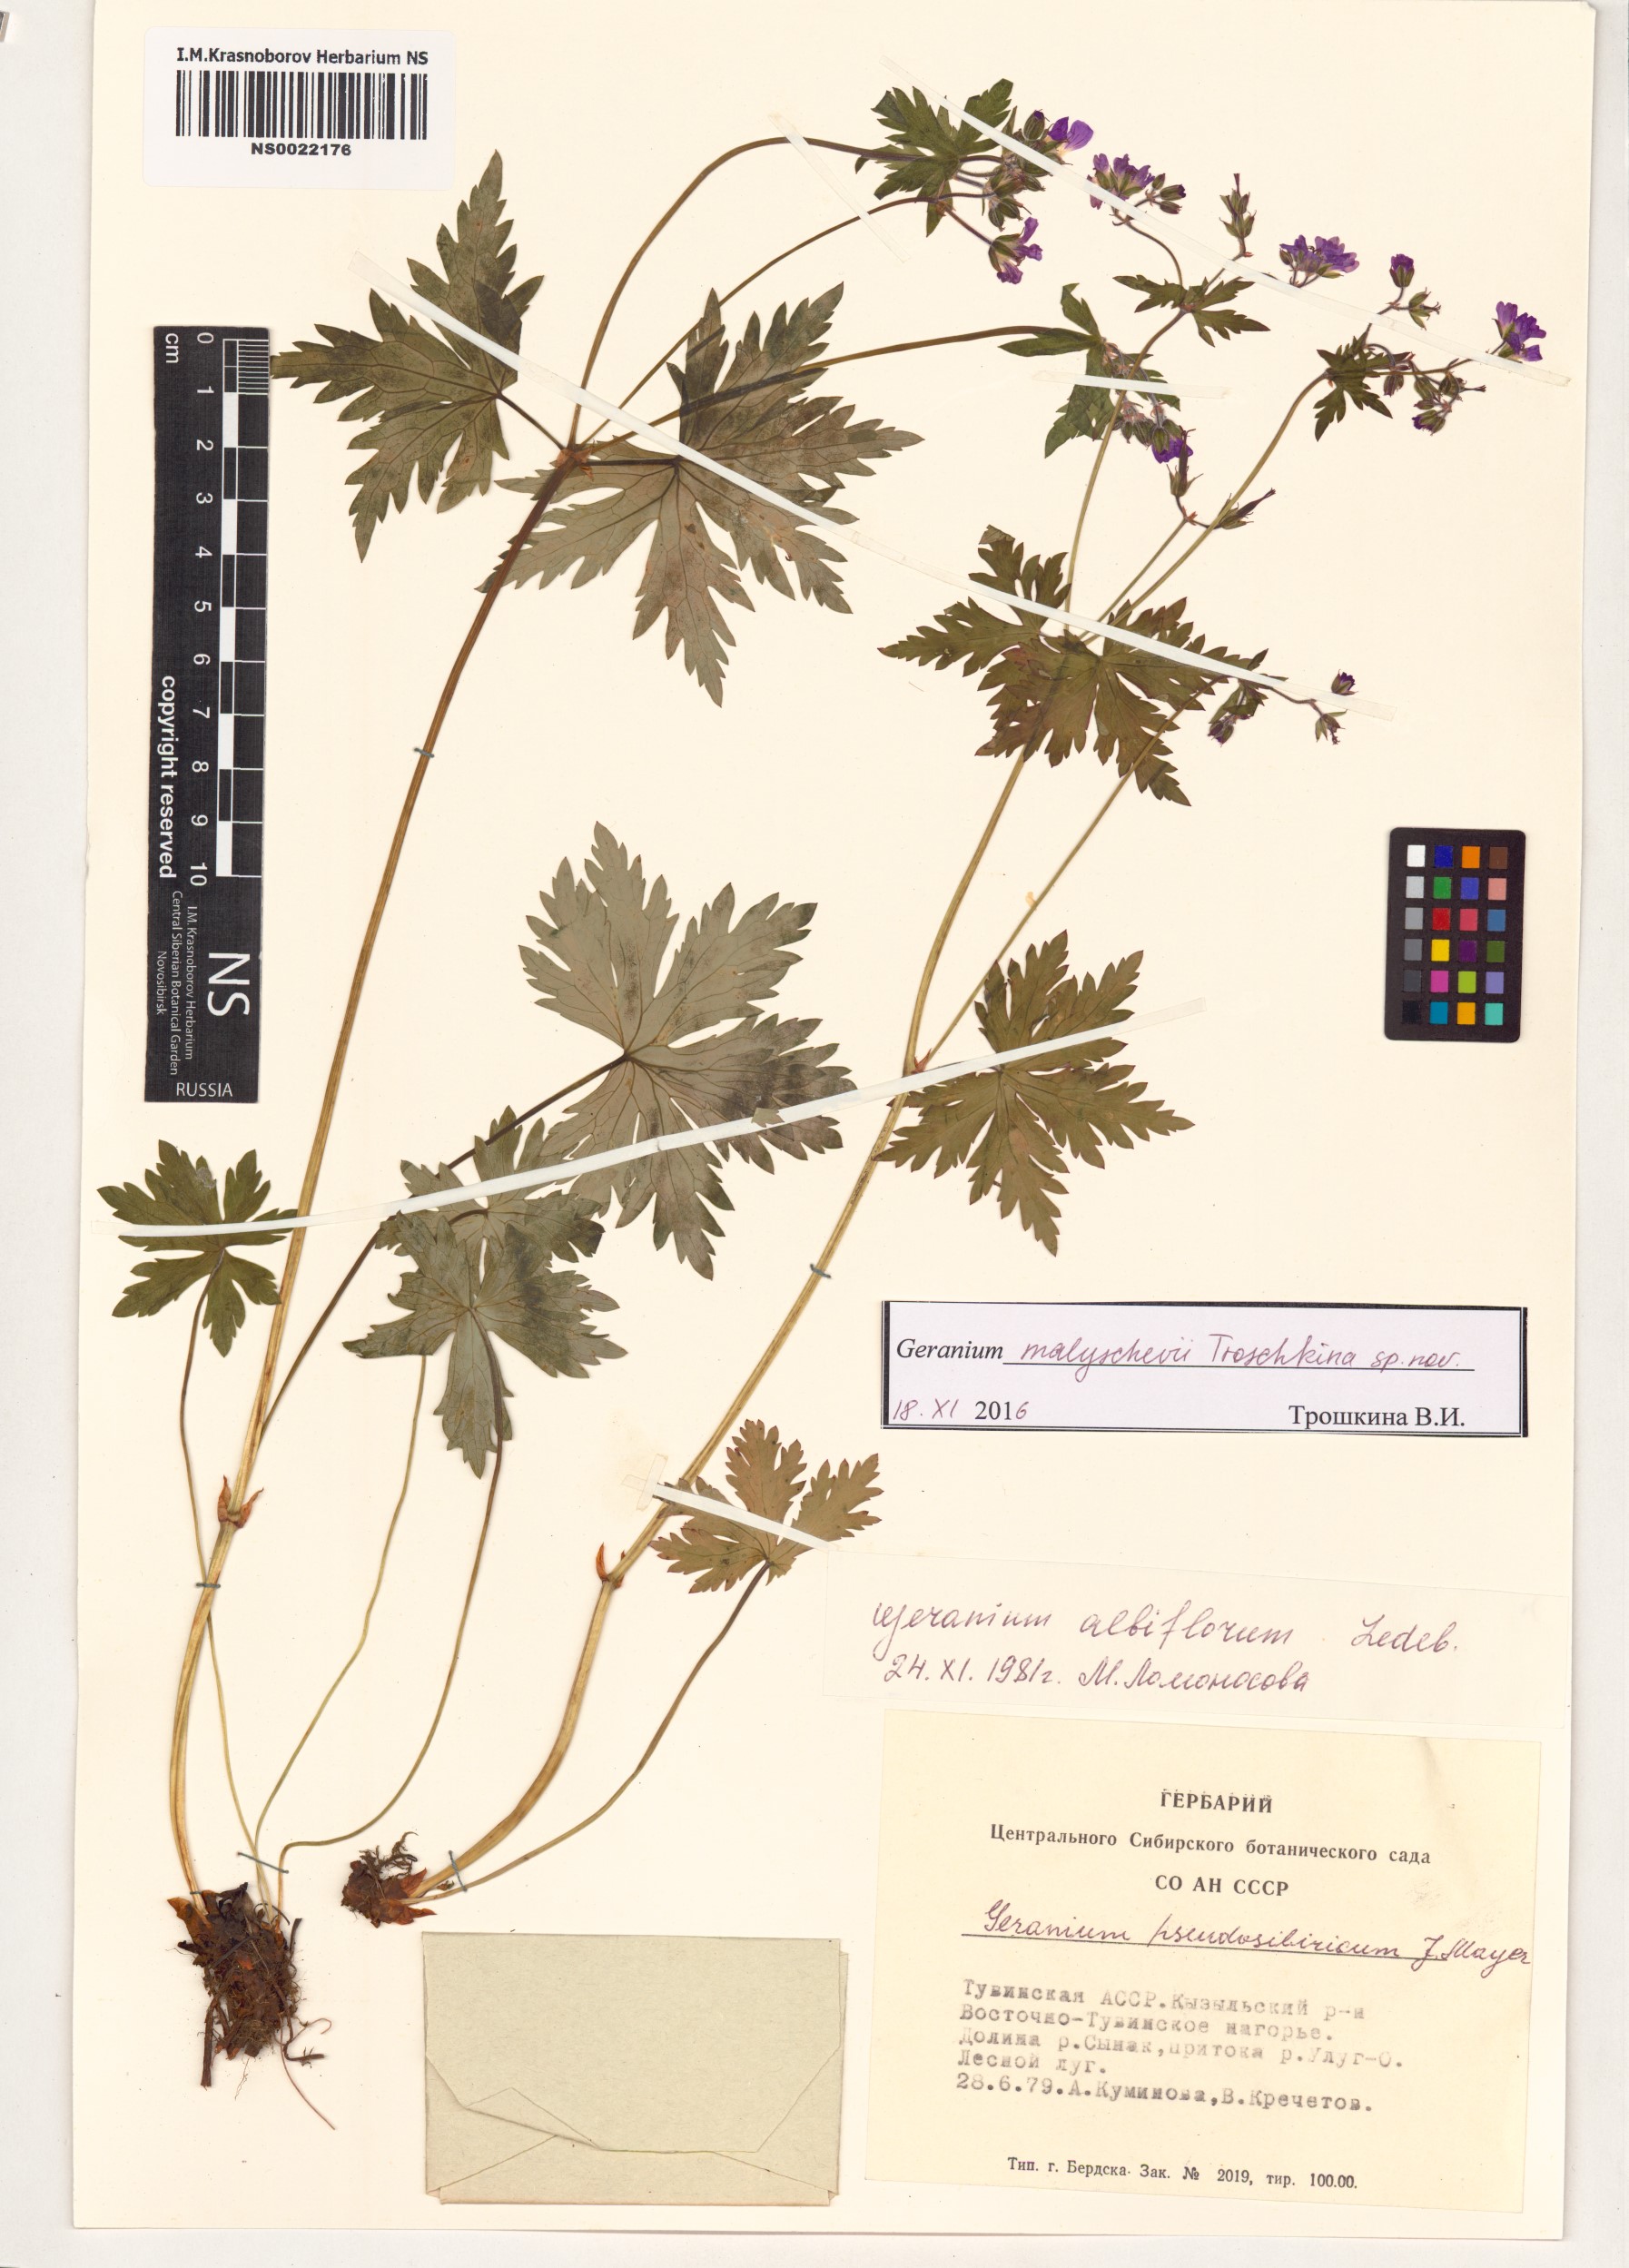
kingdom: Plantae
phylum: Tracheophyta
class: Magnoliopsida
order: Geraniales
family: Geraniaceae
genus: Geranium
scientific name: Geranium malyschevii
